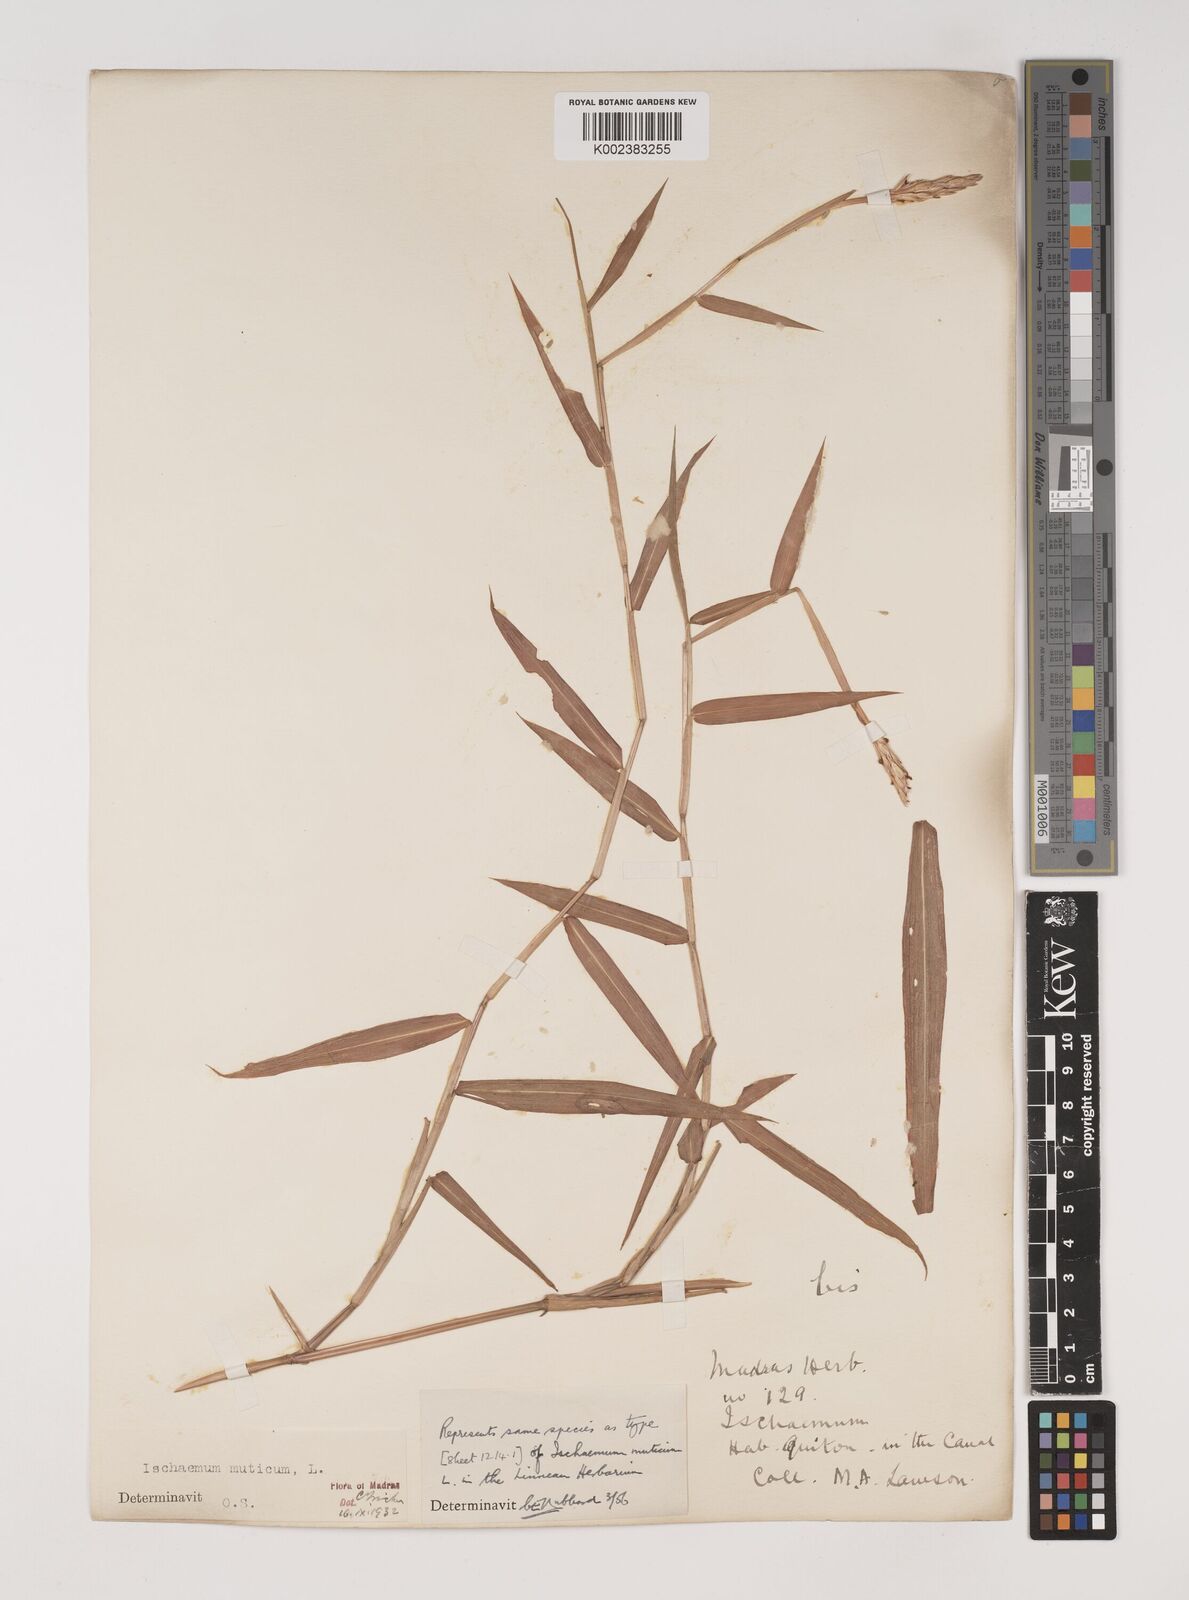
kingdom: Plantae
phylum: Tracheophyta
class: Liliopsida
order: Poales
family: Poaceae
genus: Ischaemum
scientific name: Ischaemum muticum
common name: Drought grass
